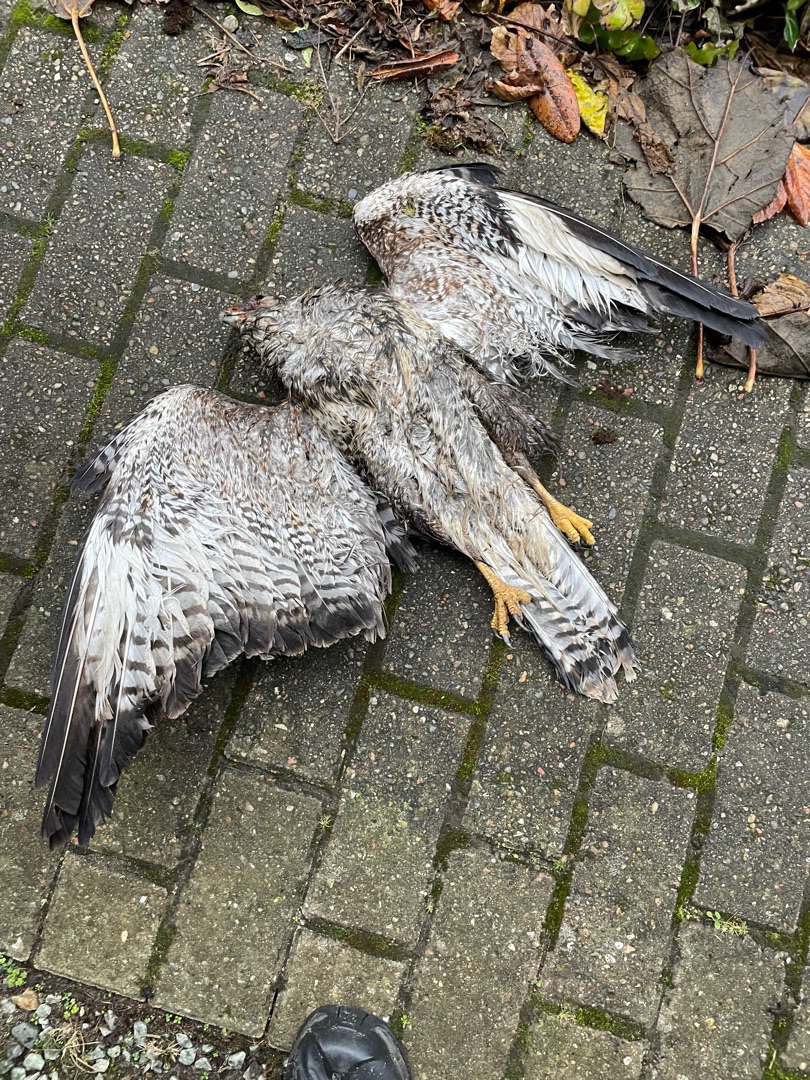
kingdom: Animalia
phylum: Chordata
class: Aves
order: Accipitriformes
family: Accipitridae
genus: Buteo
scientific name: Buteo buteo
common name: Musvåge
